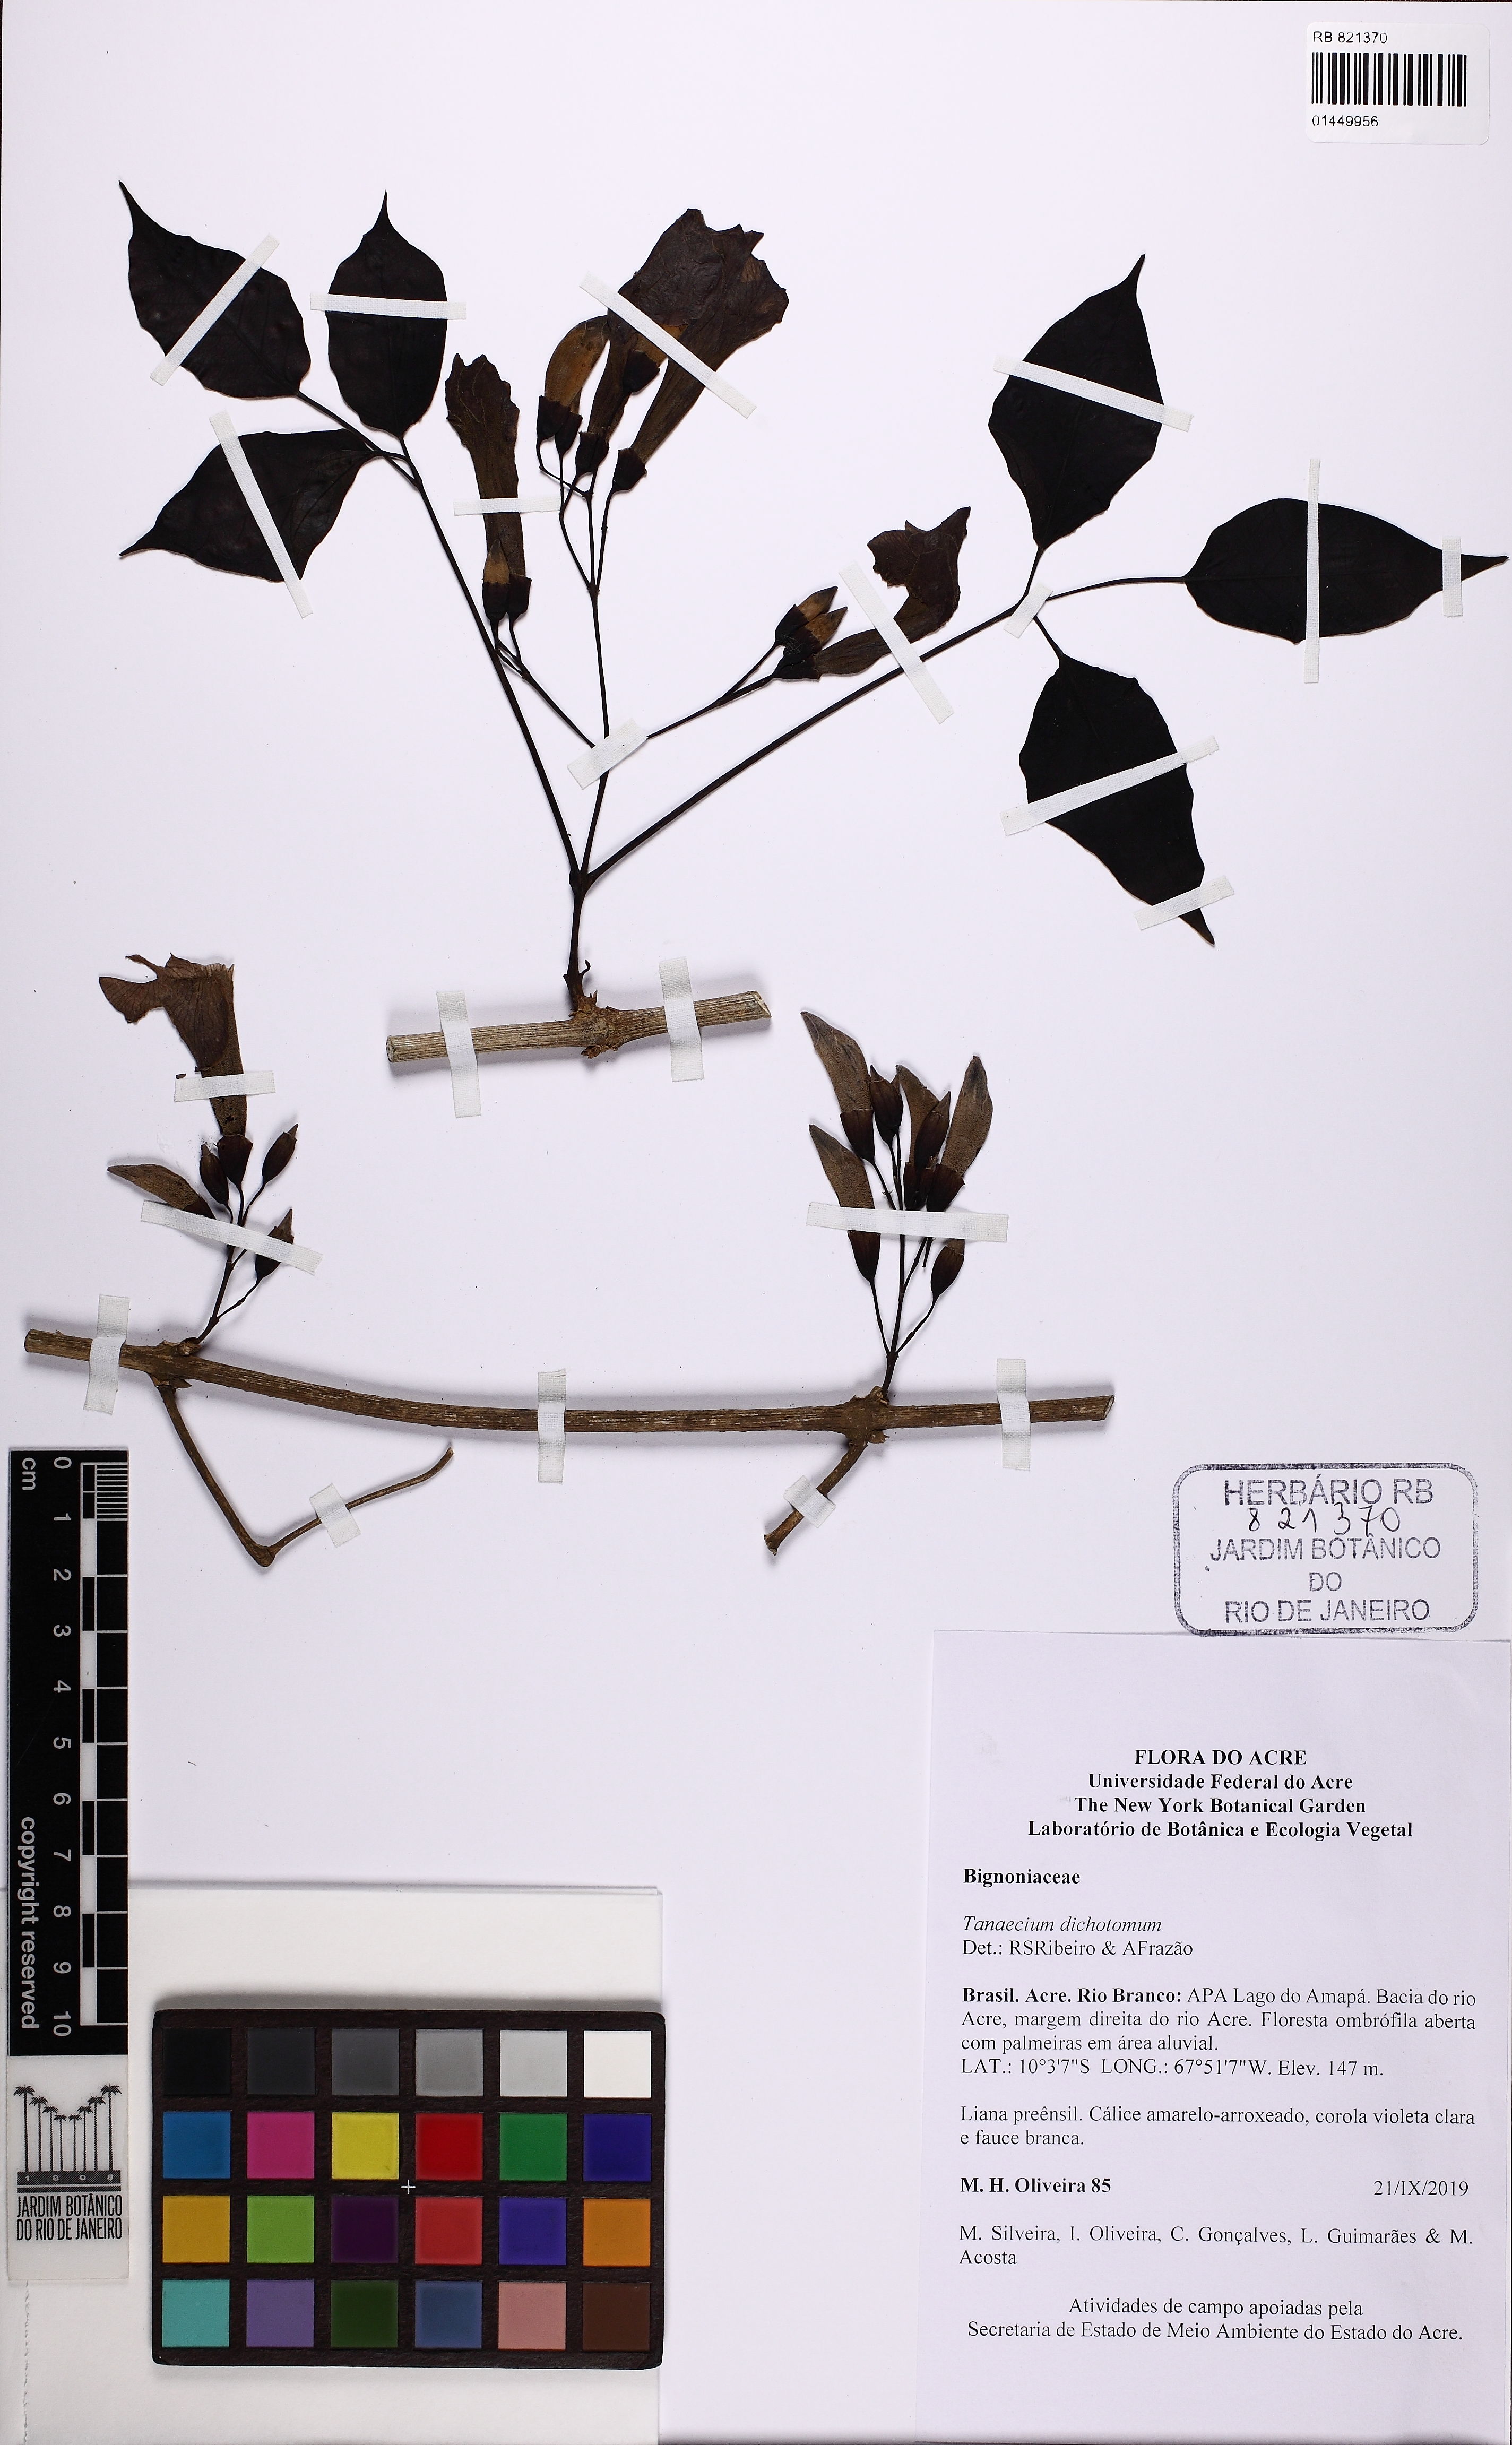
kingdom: Plantae
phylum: Tracheophyta
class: Magnoliopsida
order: Lamiales
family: Bignoniaceae
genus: Tanaecium
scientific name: Tanaecium dichotomum
